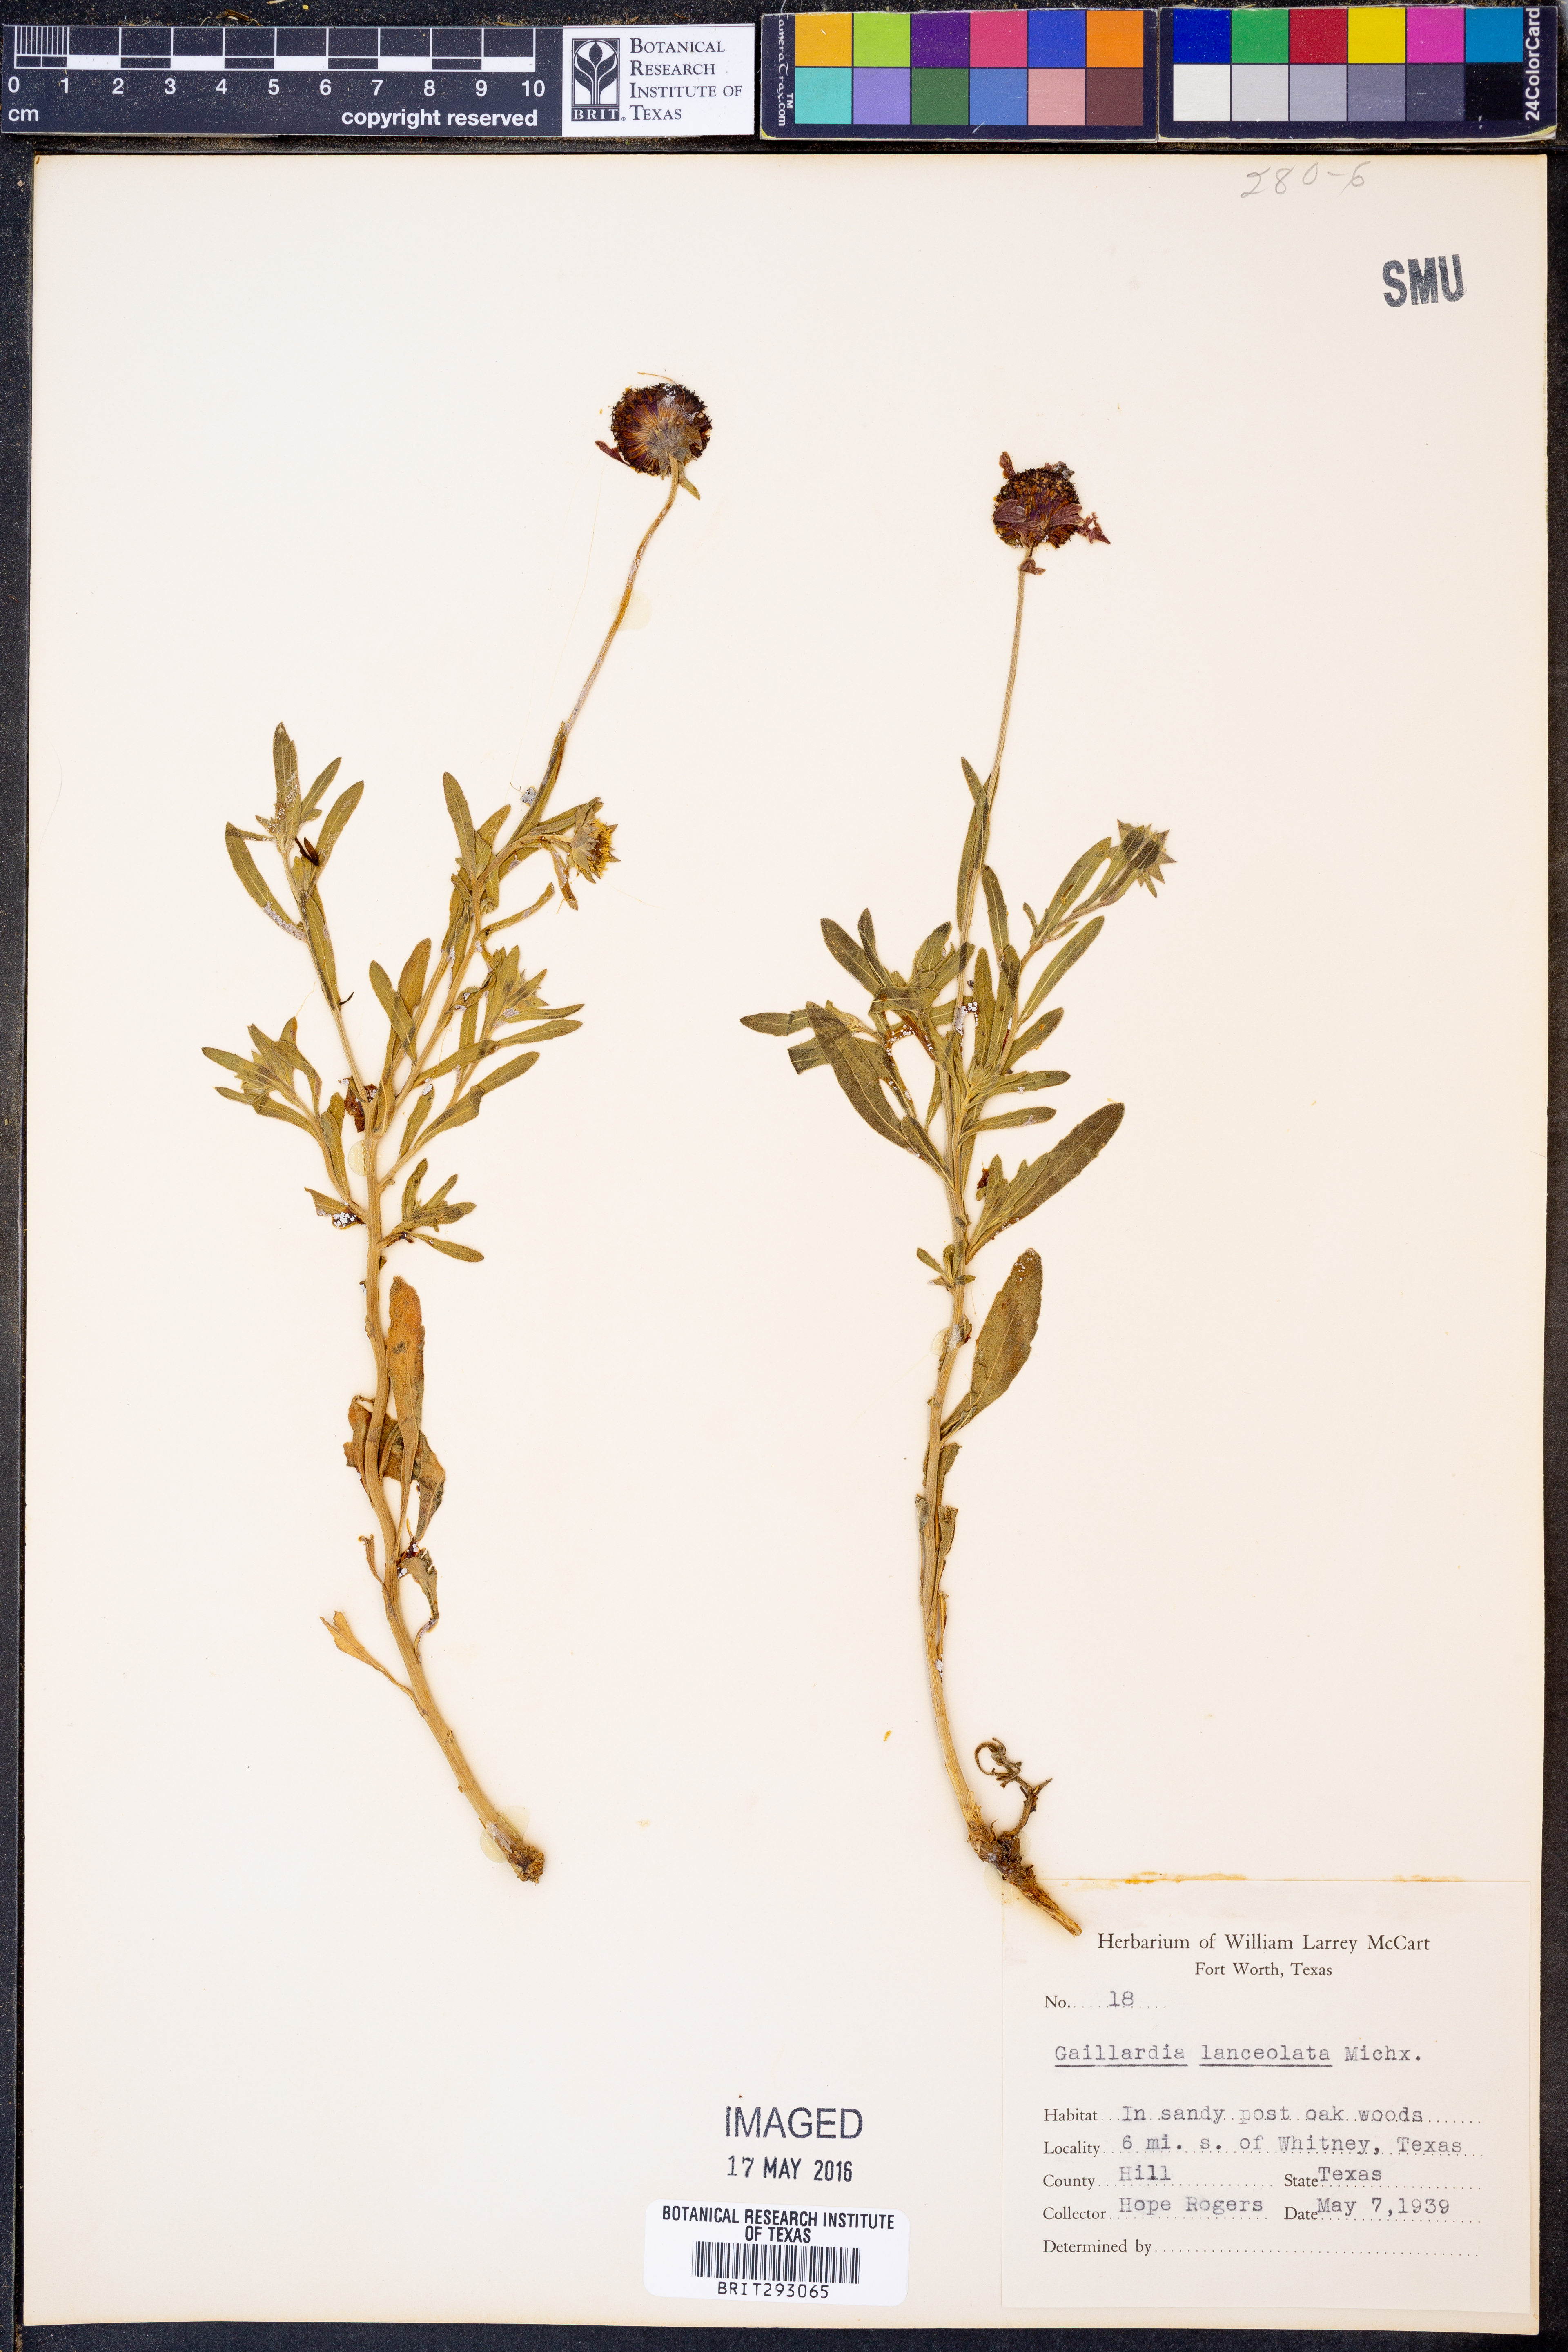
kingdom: Plantae
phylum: Tracheophyta
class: Magnoliopsida
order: Asterales
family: Asteraceae
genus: Gaillardia
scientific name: Gaillardia aestivalis
